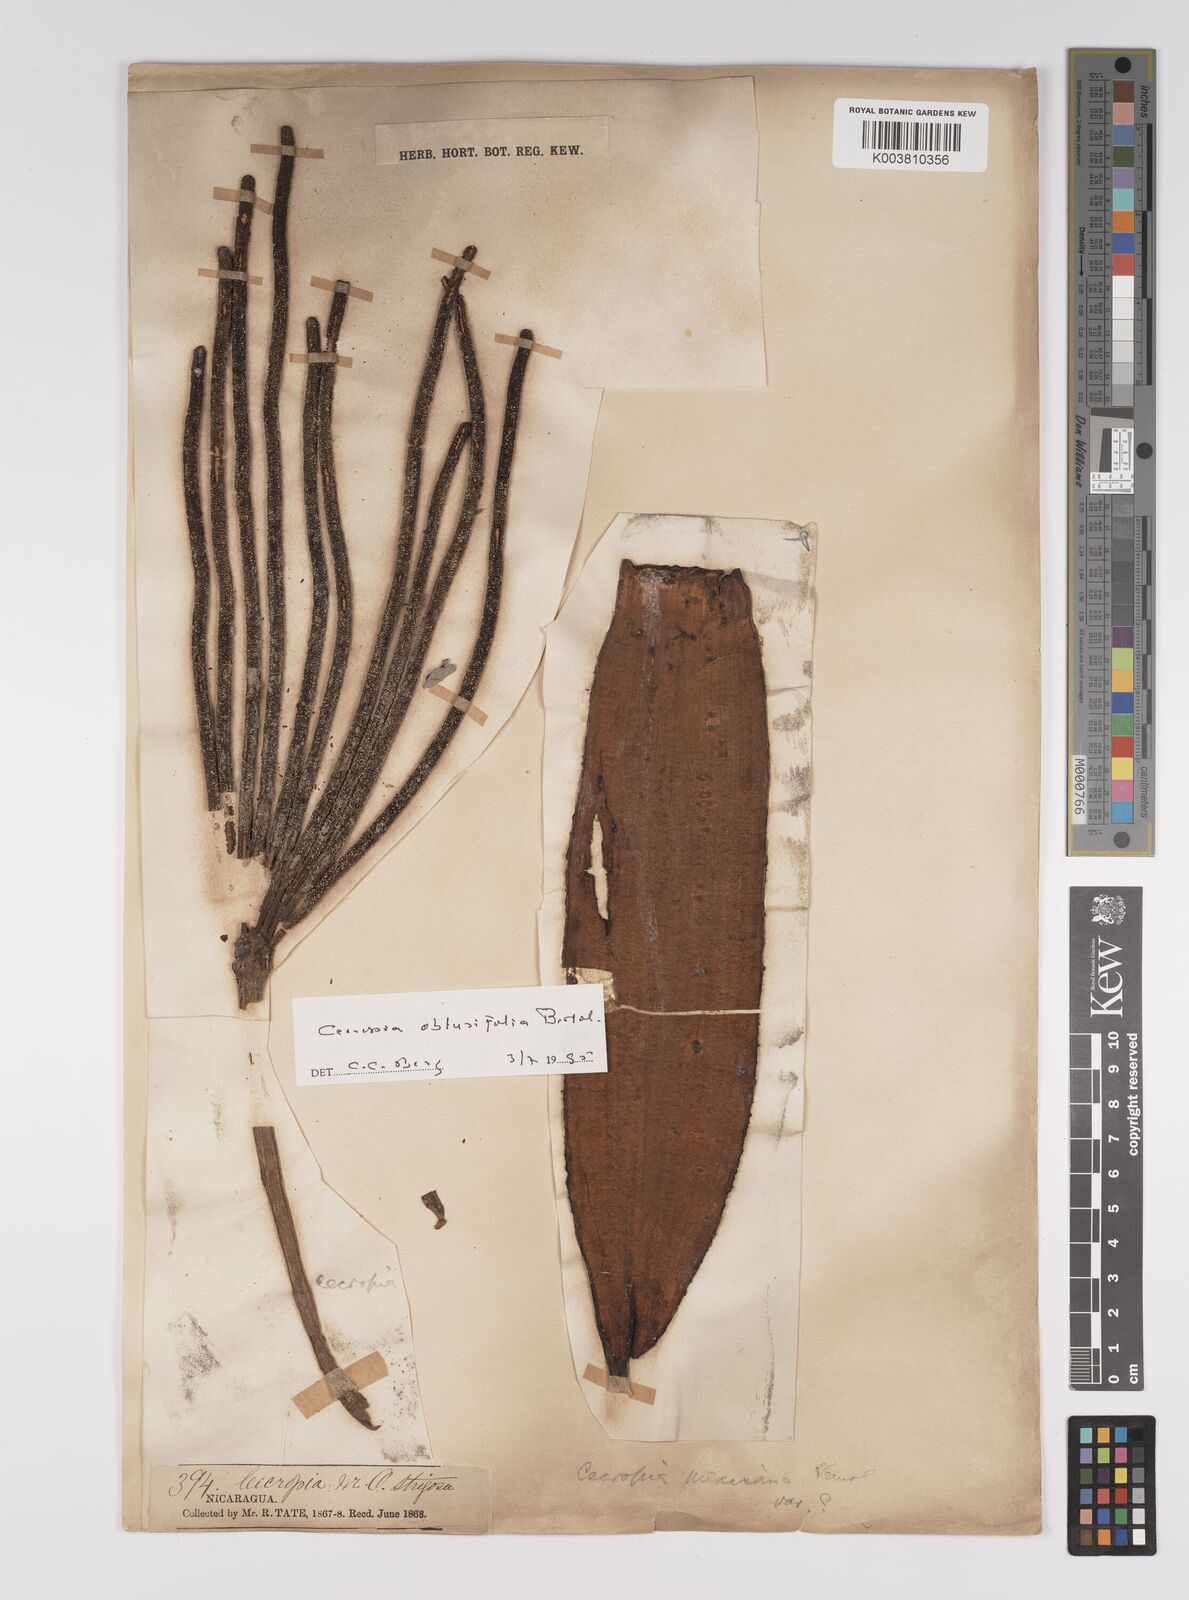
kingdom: Plantae
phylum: Tracheophyta
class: Magnoliopsida
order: Rosales
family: Urticaceae
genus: Cecropia
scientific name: Cecropia obtusifolia
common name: Trumpet tree
